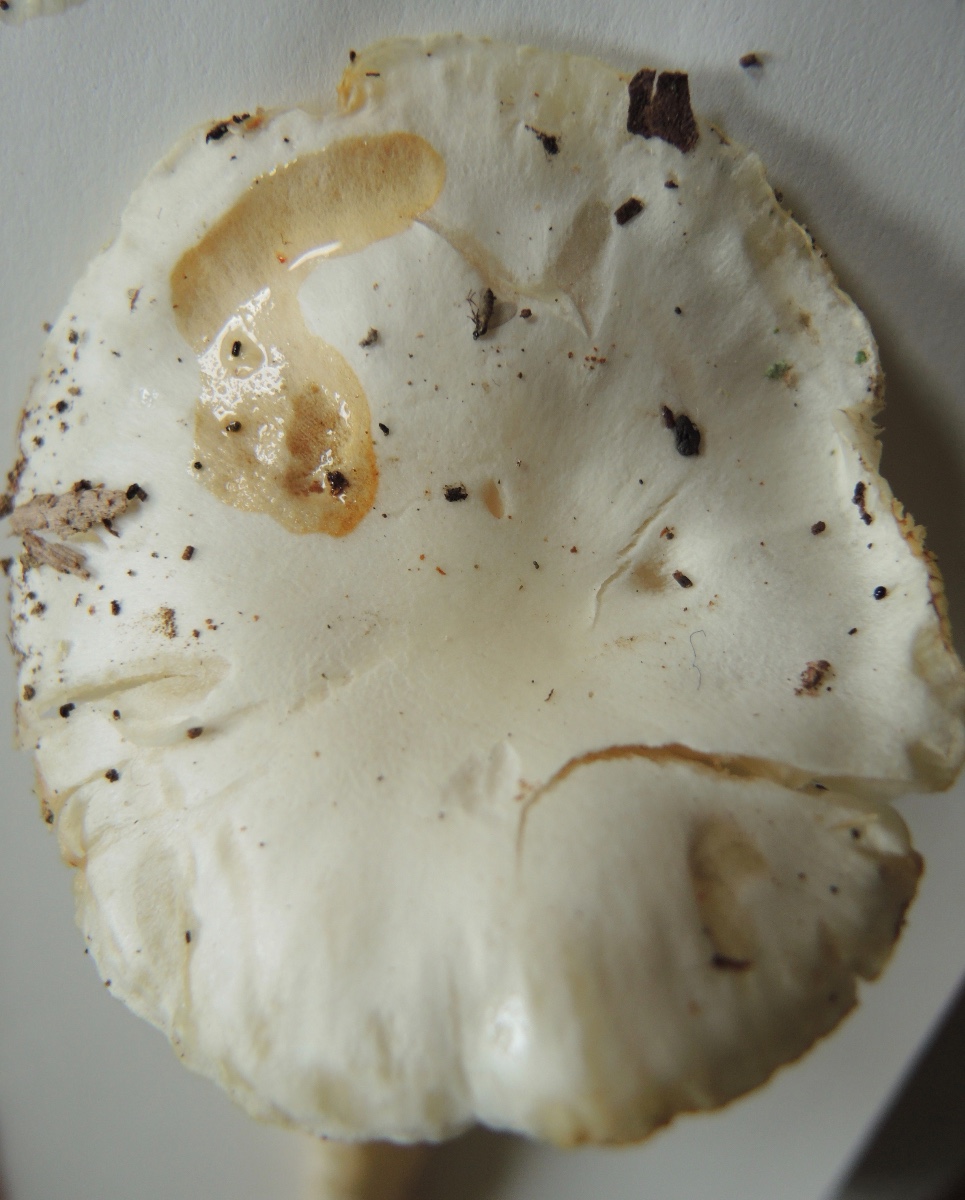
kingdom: Fungi
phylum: Basidiomycota
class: Agaricomycetes
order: Agaricales
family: Hygrophoraceae
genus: Hygrophorus
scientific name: Hygrophorus discoxanthus
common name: ildelugtende sneglehat
